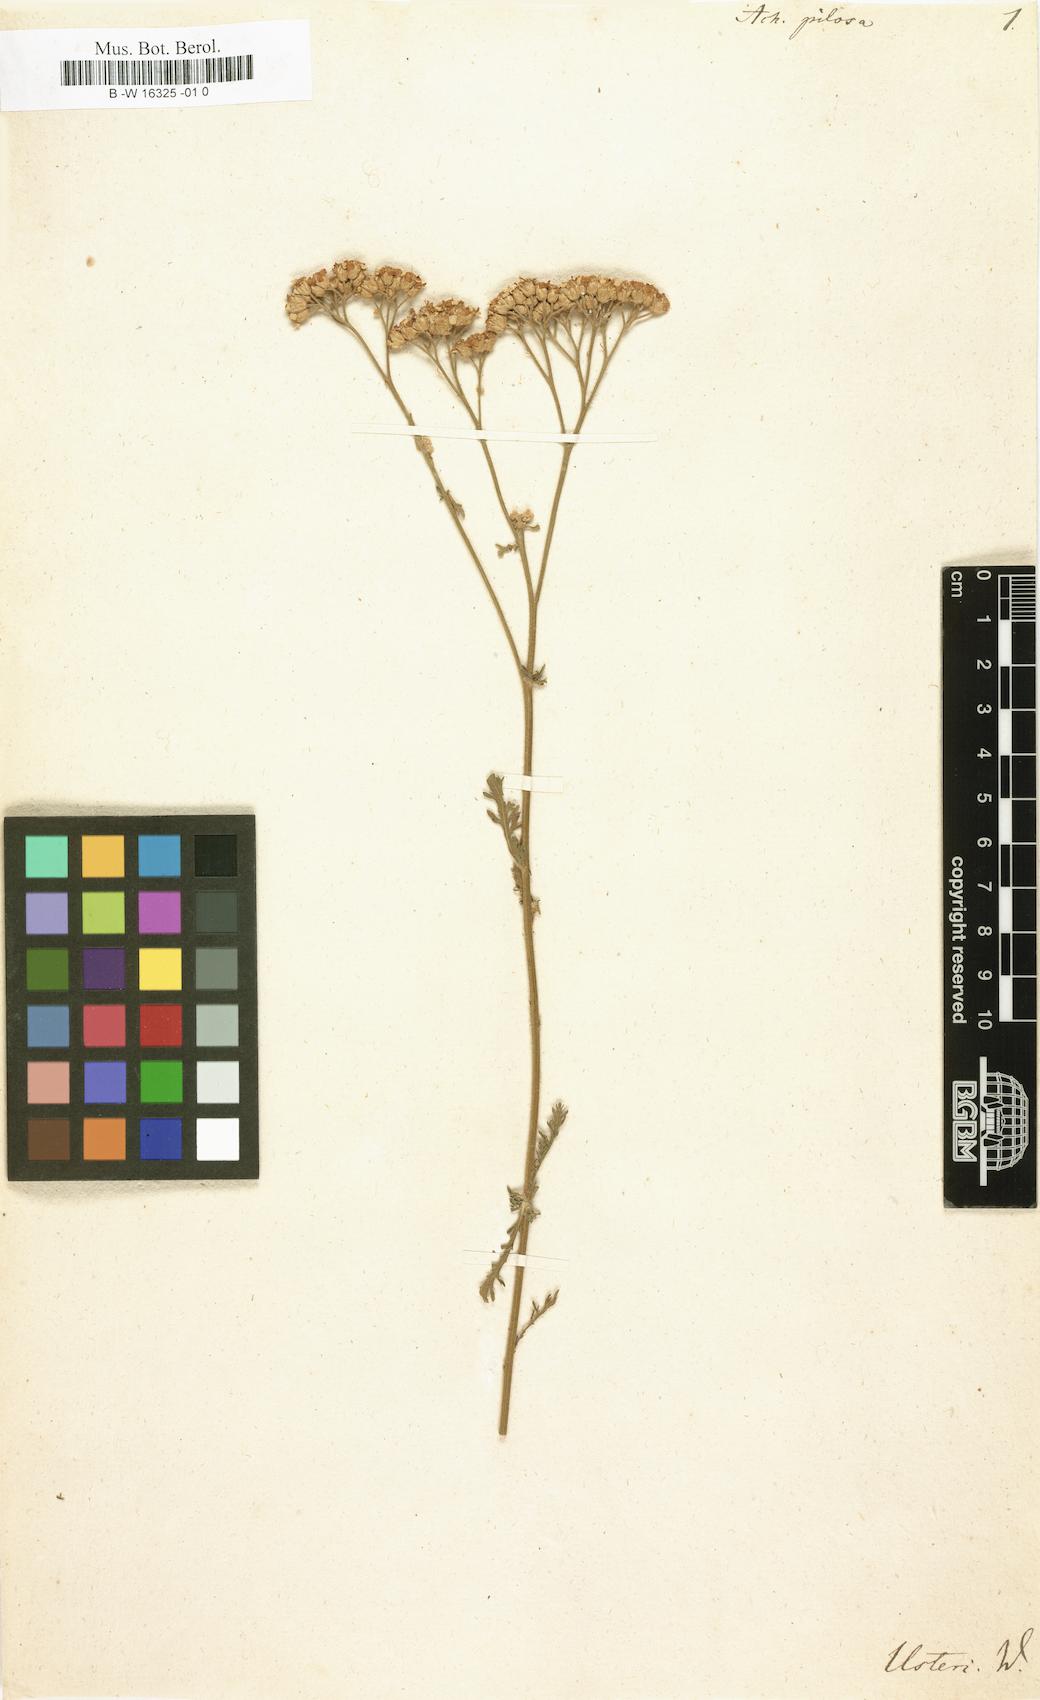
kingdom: Plantae
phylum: Tracheophyta
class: Magnoliopsida
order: Asterales
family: Asteraceae
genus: Achillea
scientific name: Achillea pilosa
